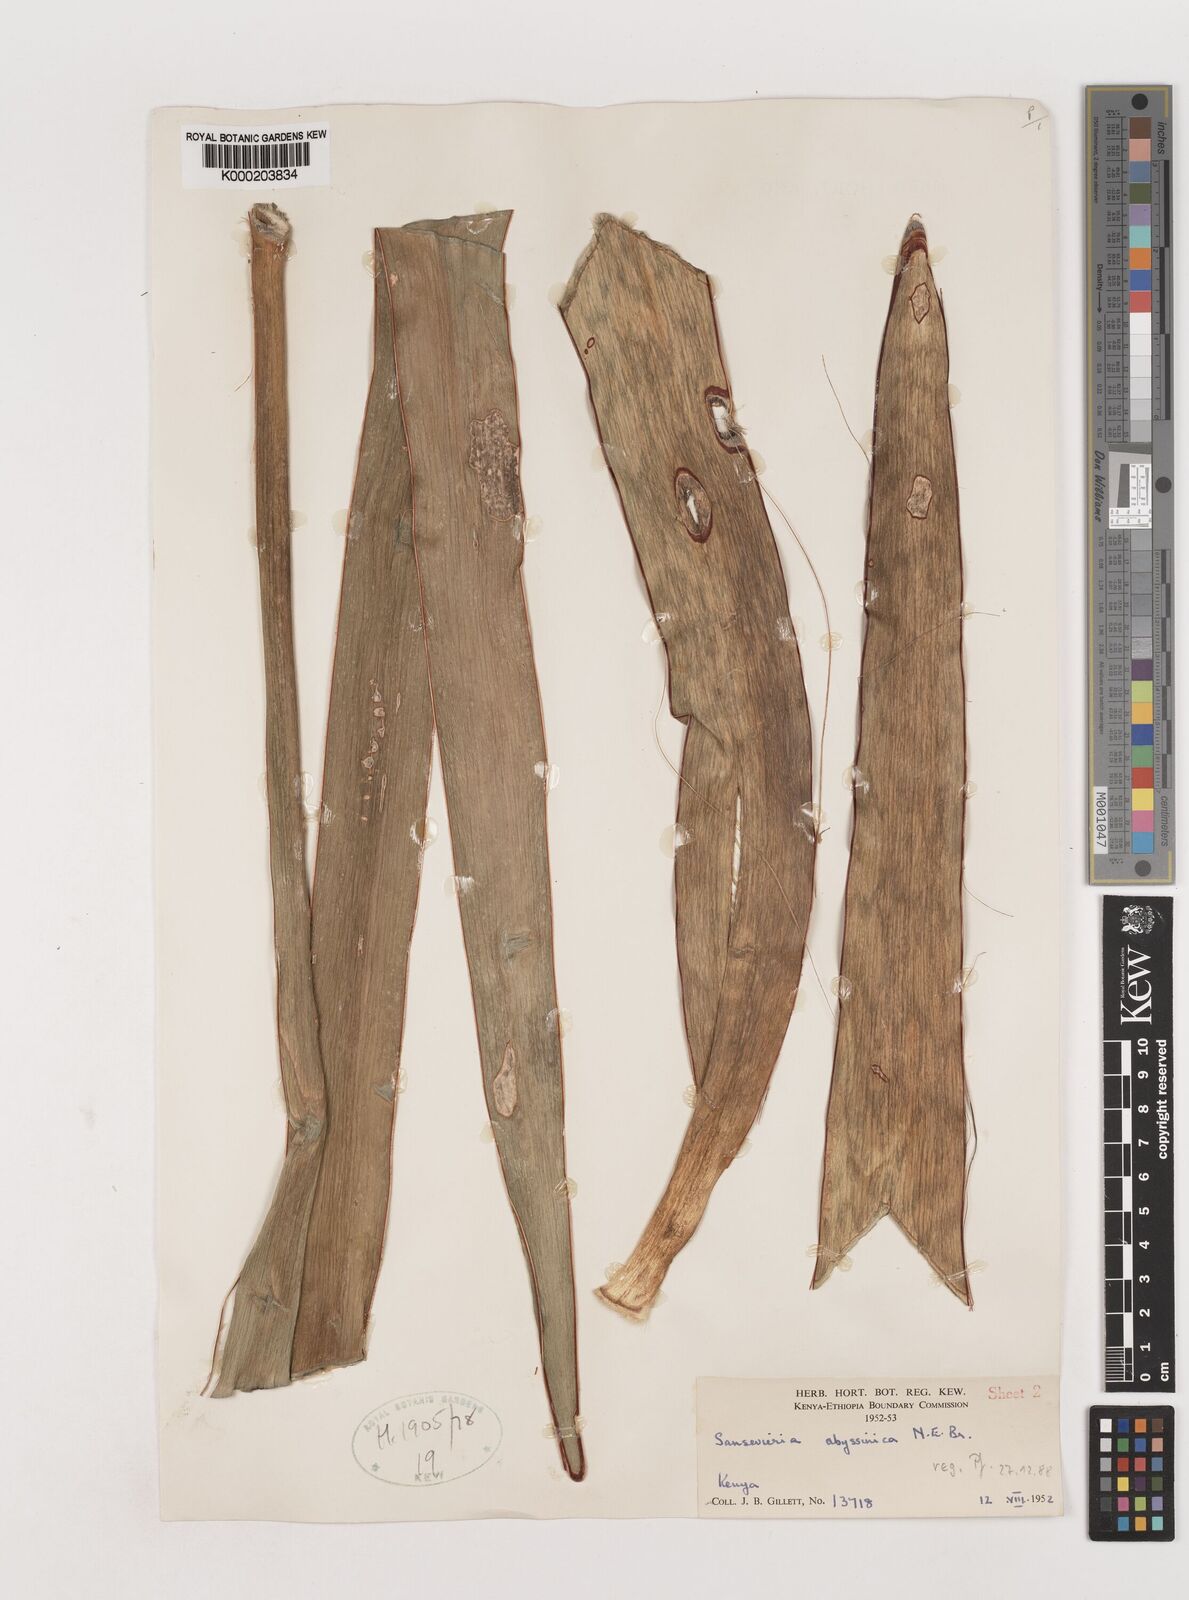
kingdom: Plantae
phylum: Tracheophyta
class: Liliopsida
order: Asparagales
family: Asparagaceae
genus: Dracaena
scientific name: Dracaena forskaliana
